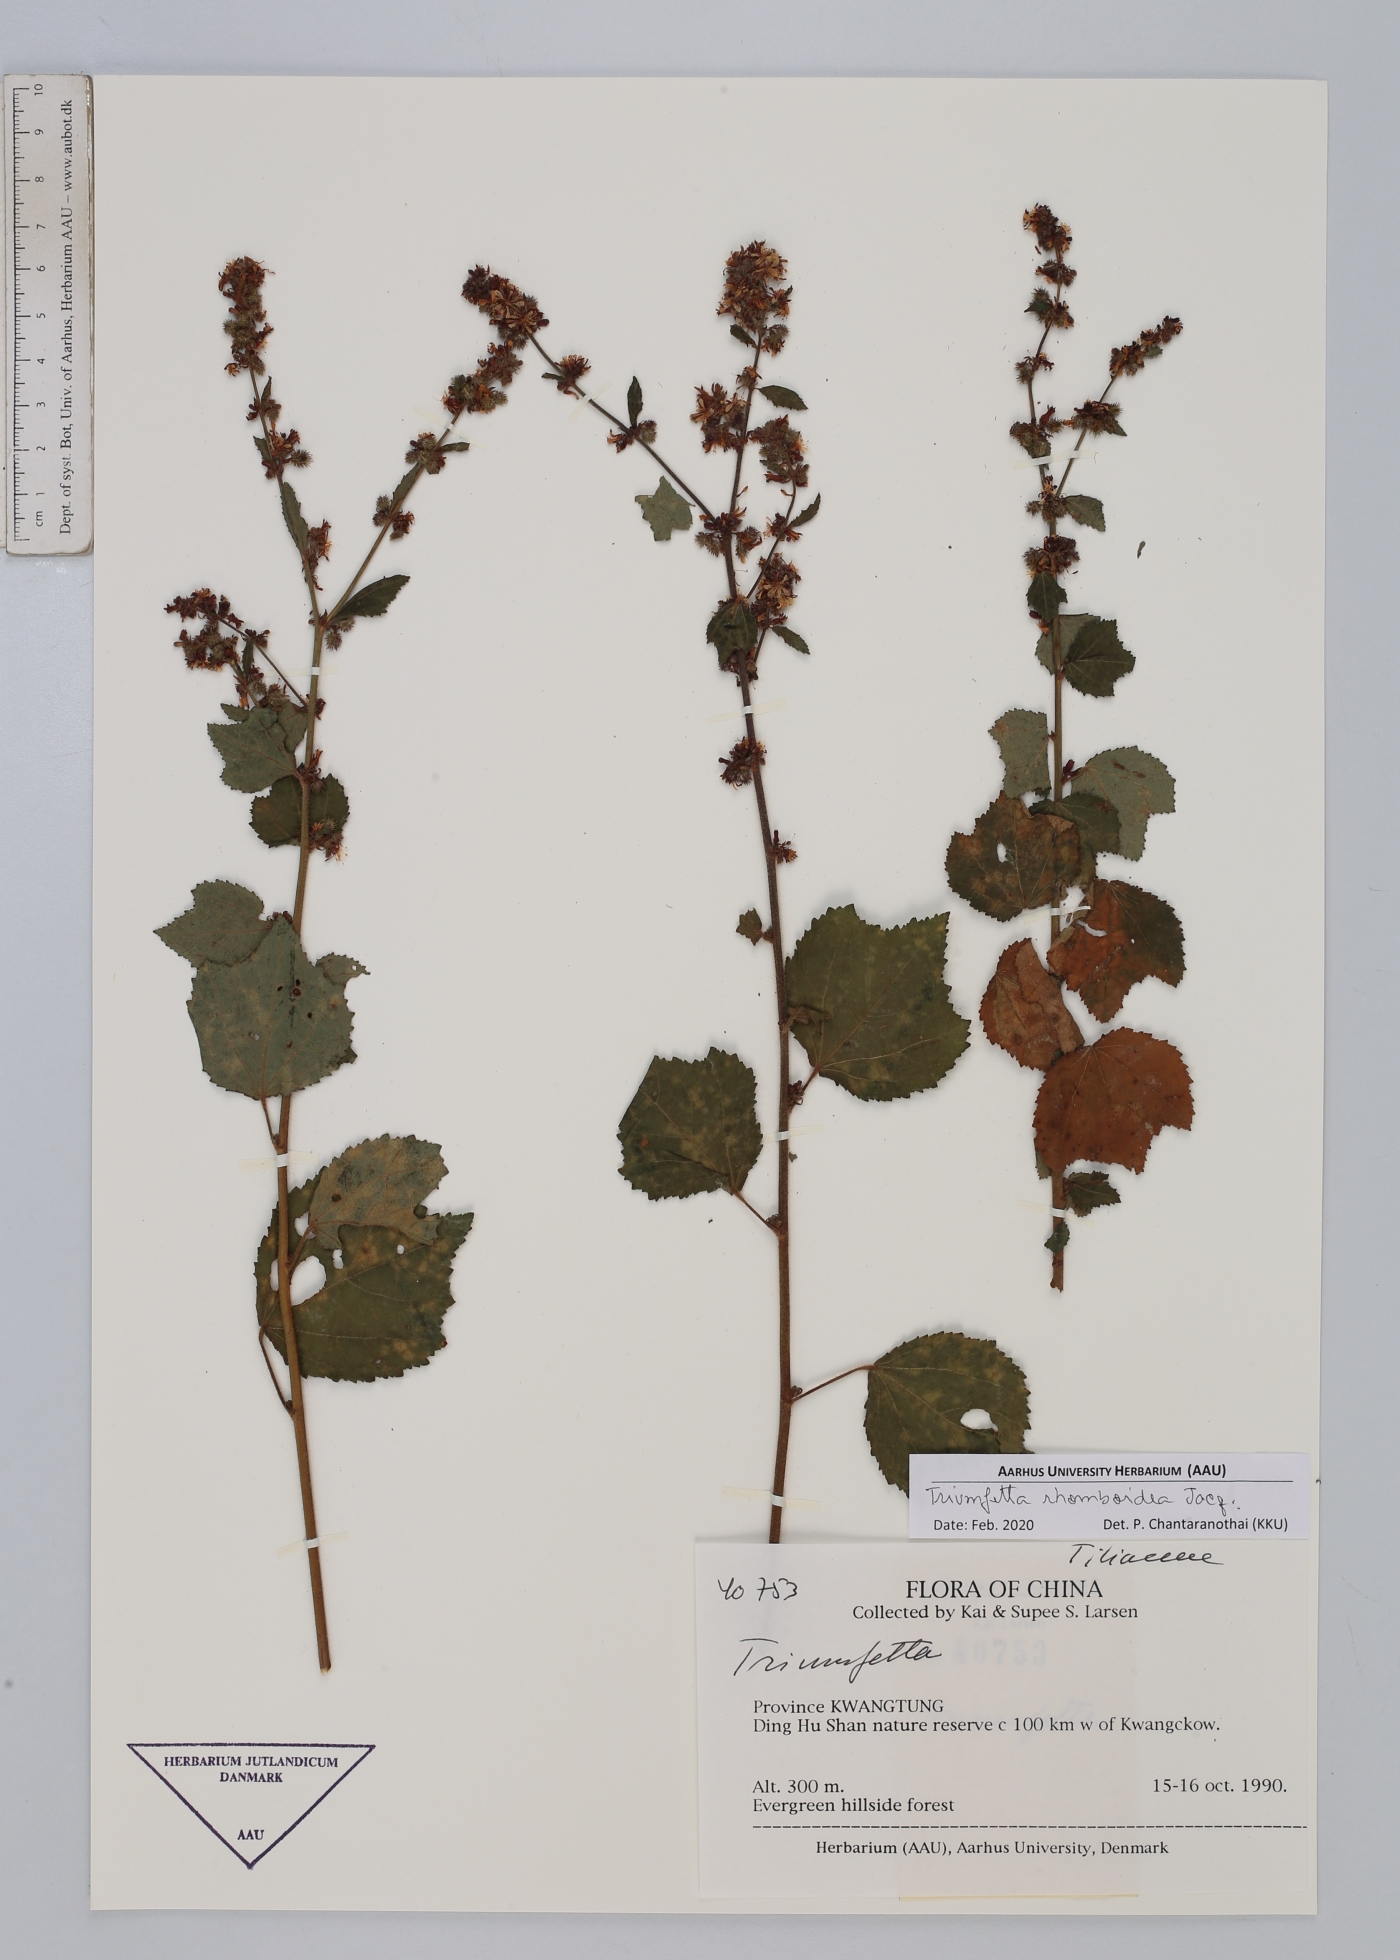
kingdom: Plantae
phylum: Tracheophyta
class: Magnoliopsida
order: Malvales
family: Malvaceae
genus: Triumfetta
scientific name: Triumfetta rhomboidea
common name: Diamond burbark
